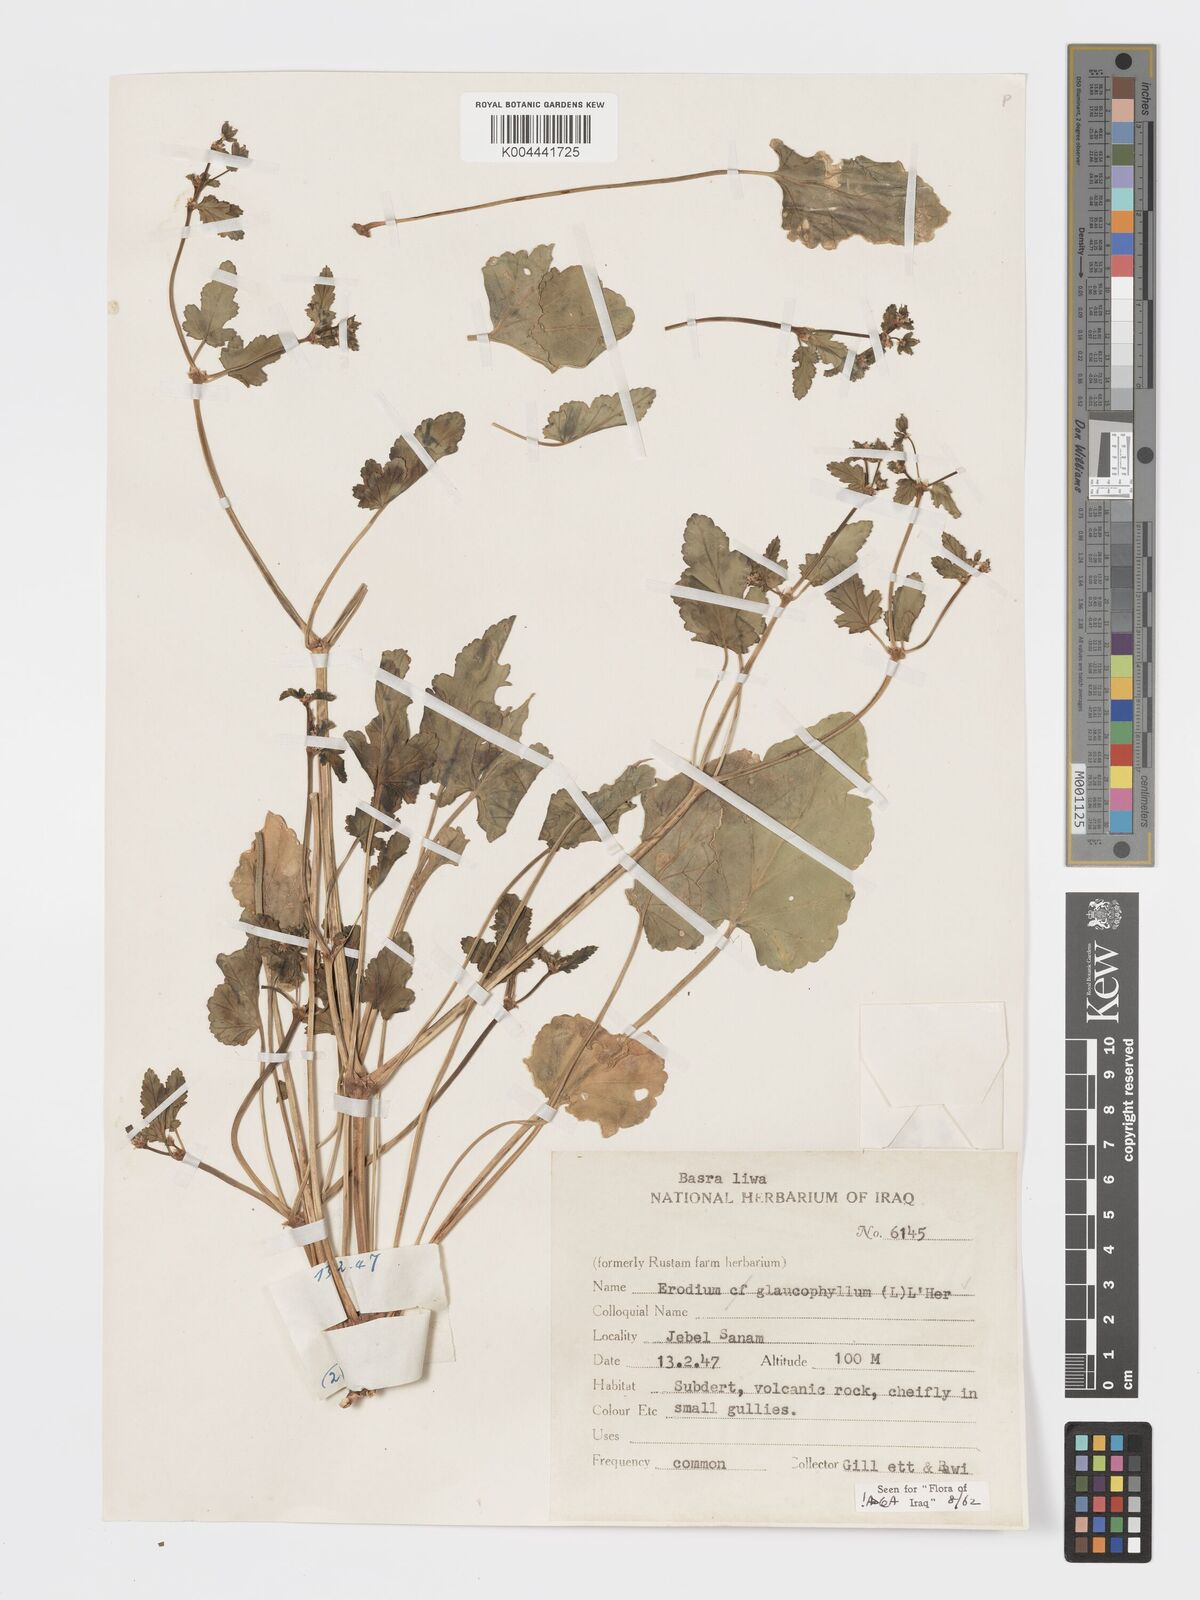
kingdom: Plantae
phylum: Tracheophyta
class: Magnoliopsida
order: Geraniales
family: Geraniaceae
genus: Erodium
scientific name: Erodium glaucophyllum
